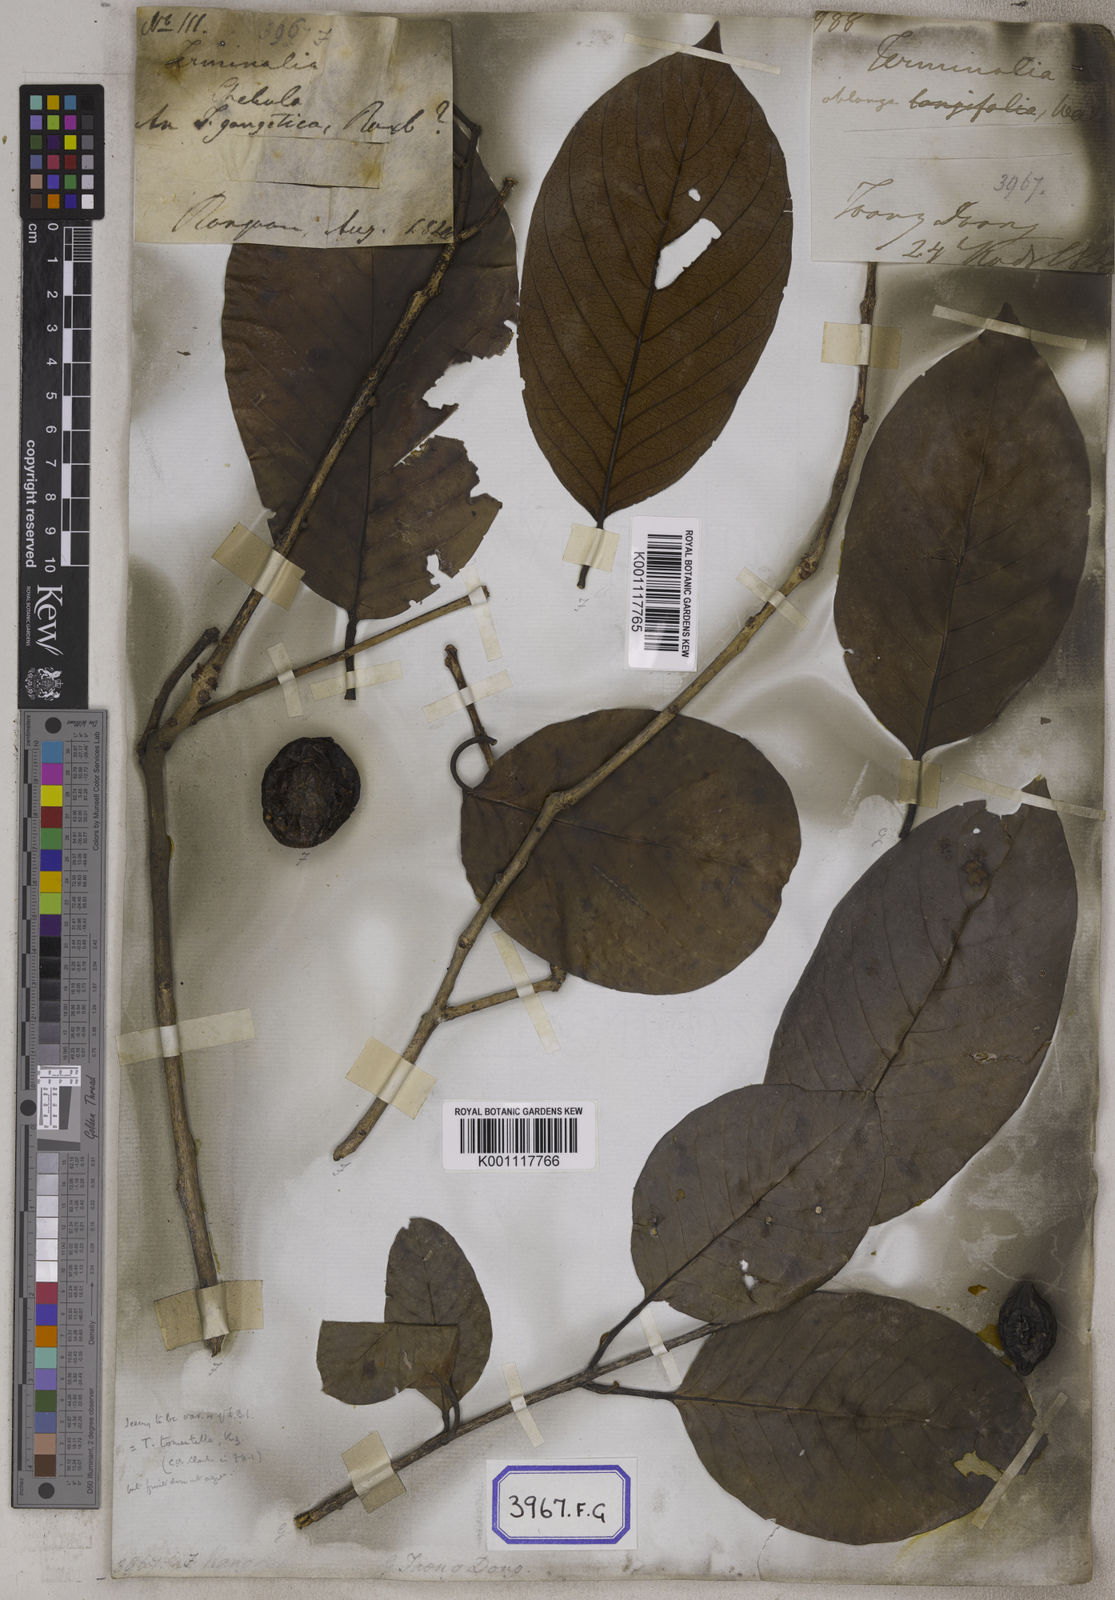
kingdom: Plantae
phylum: Tracheophyta
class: Magnoliopsida
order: Myrtales
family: Combretaceae
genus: Terminalia
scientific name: Terminalia chebula
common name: Myrobalan
